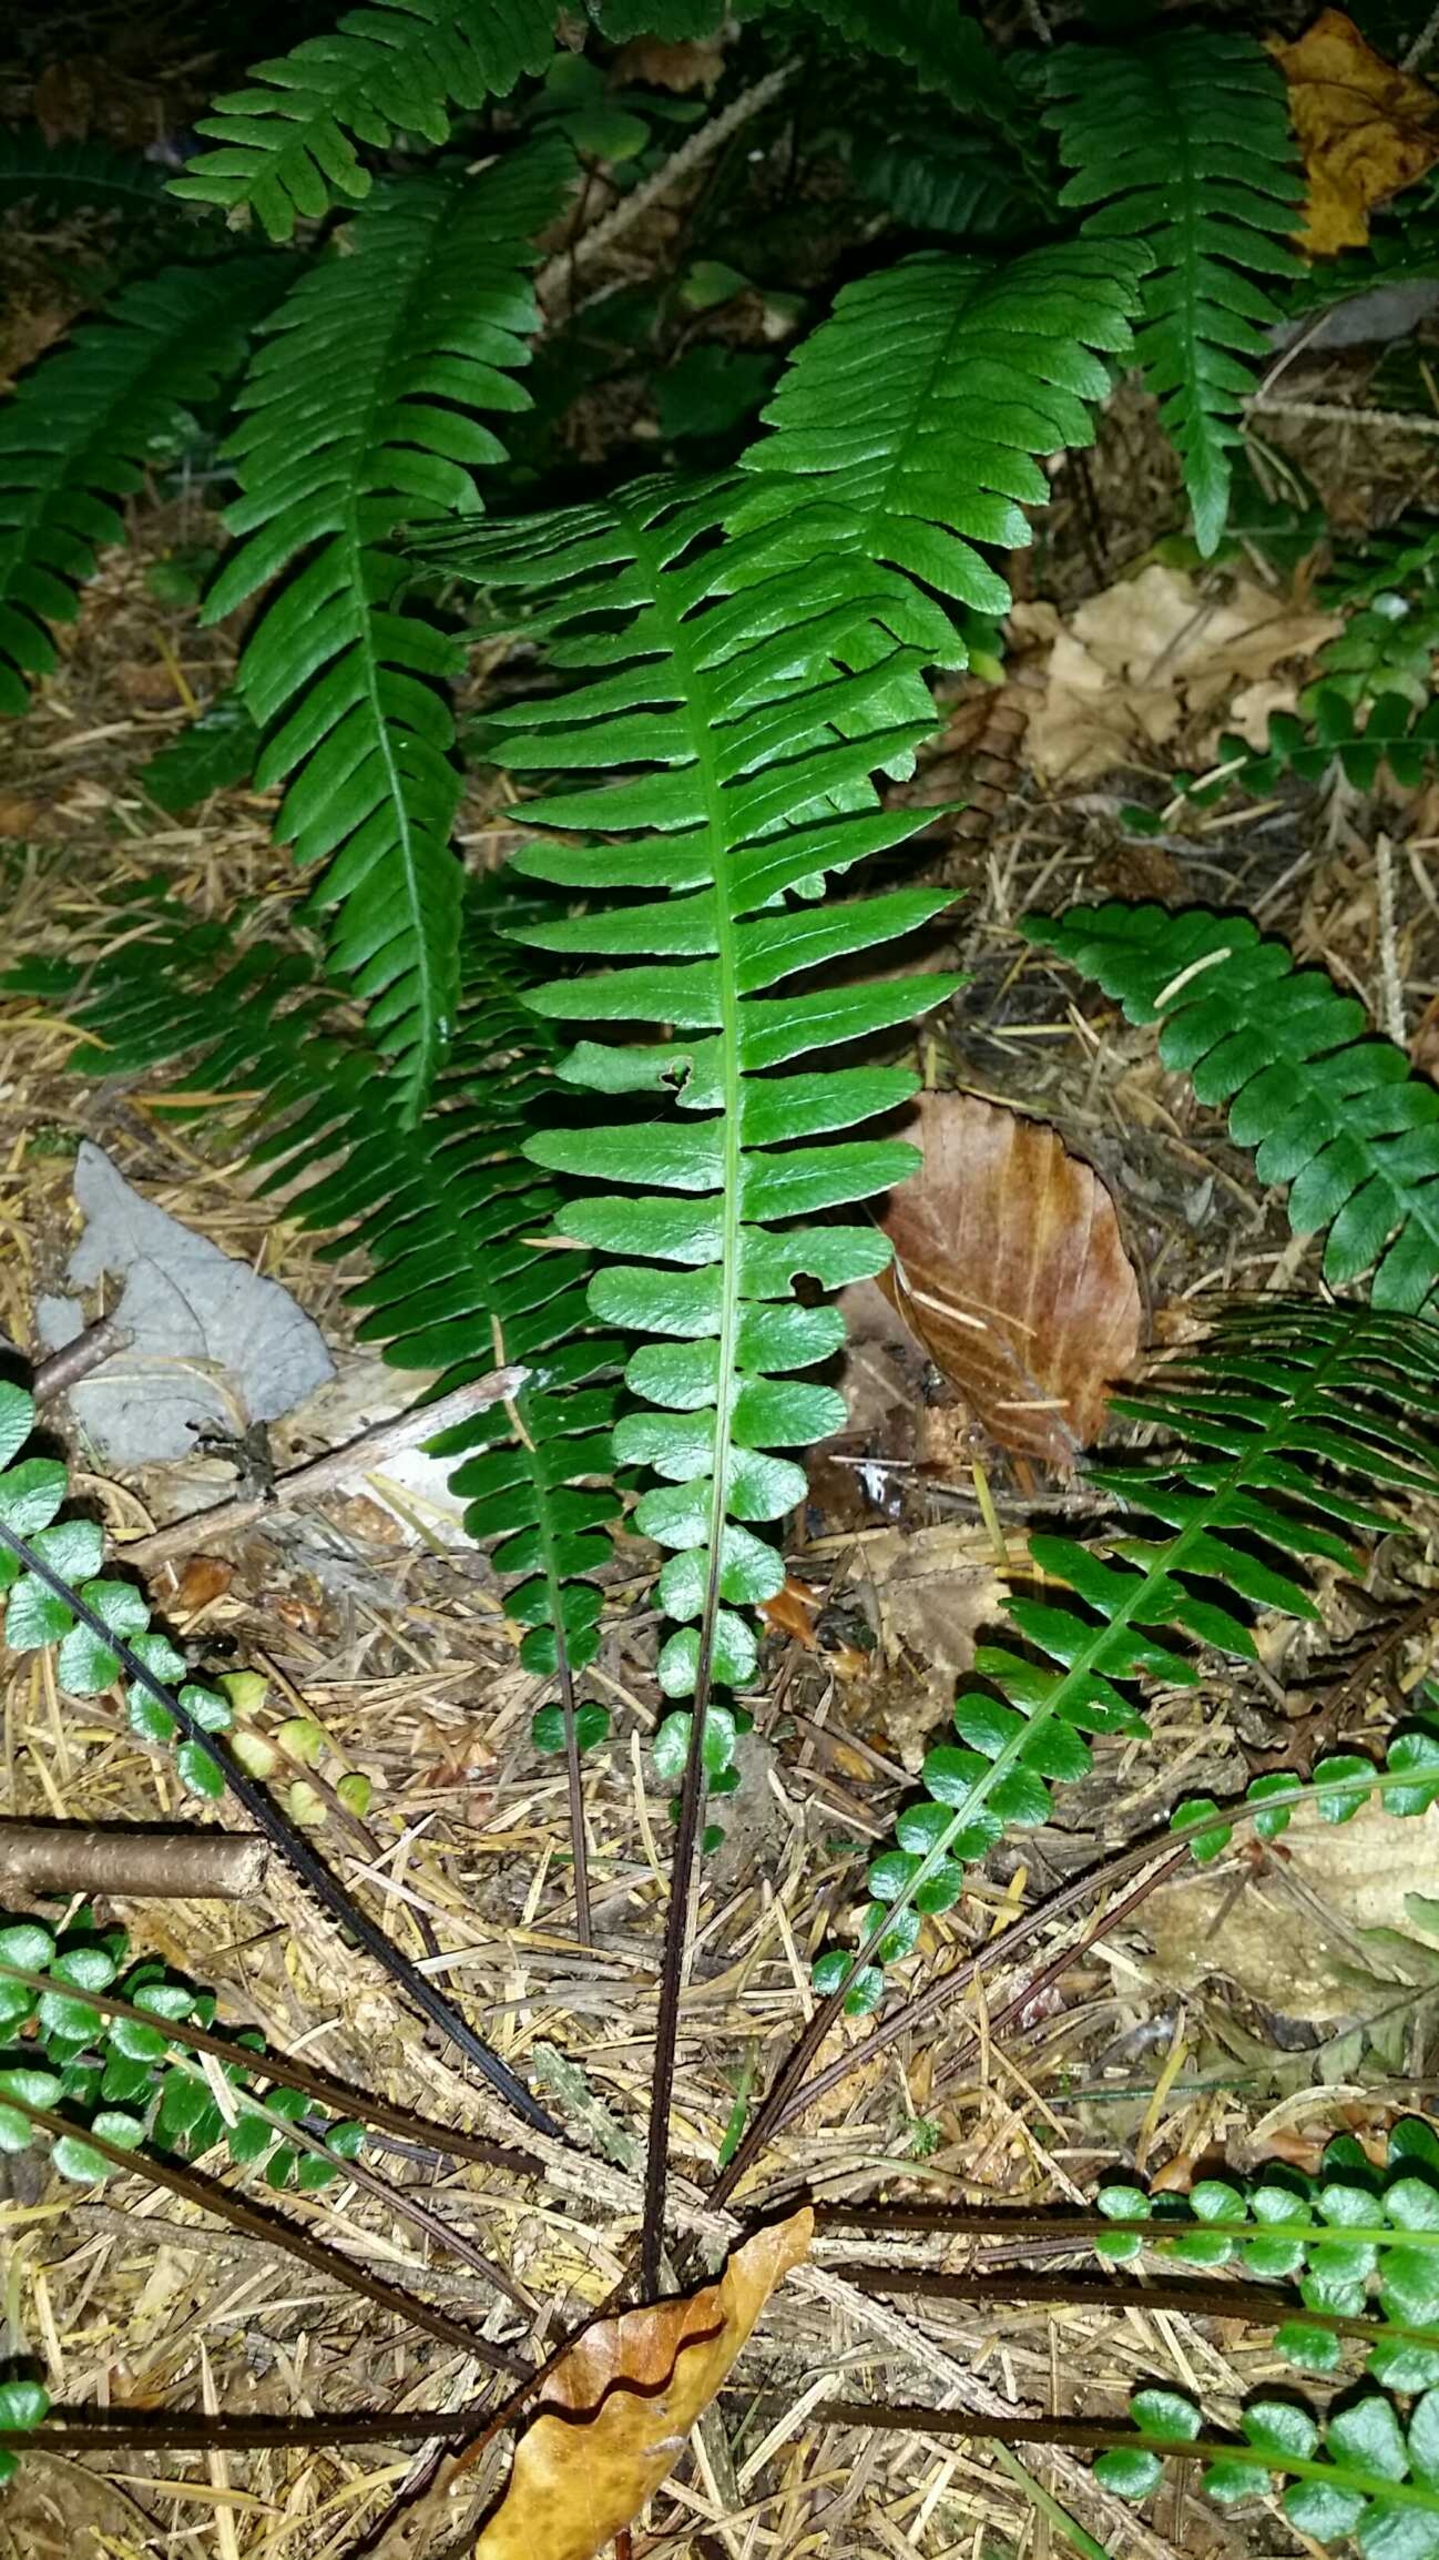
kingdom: Plantae
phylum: Tracheophyta
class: Polypodiopsida
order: Polypodiales
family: Blechnaceae
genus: Struthiopteris
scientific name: Struthiopteris spicant
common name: Kambregne
